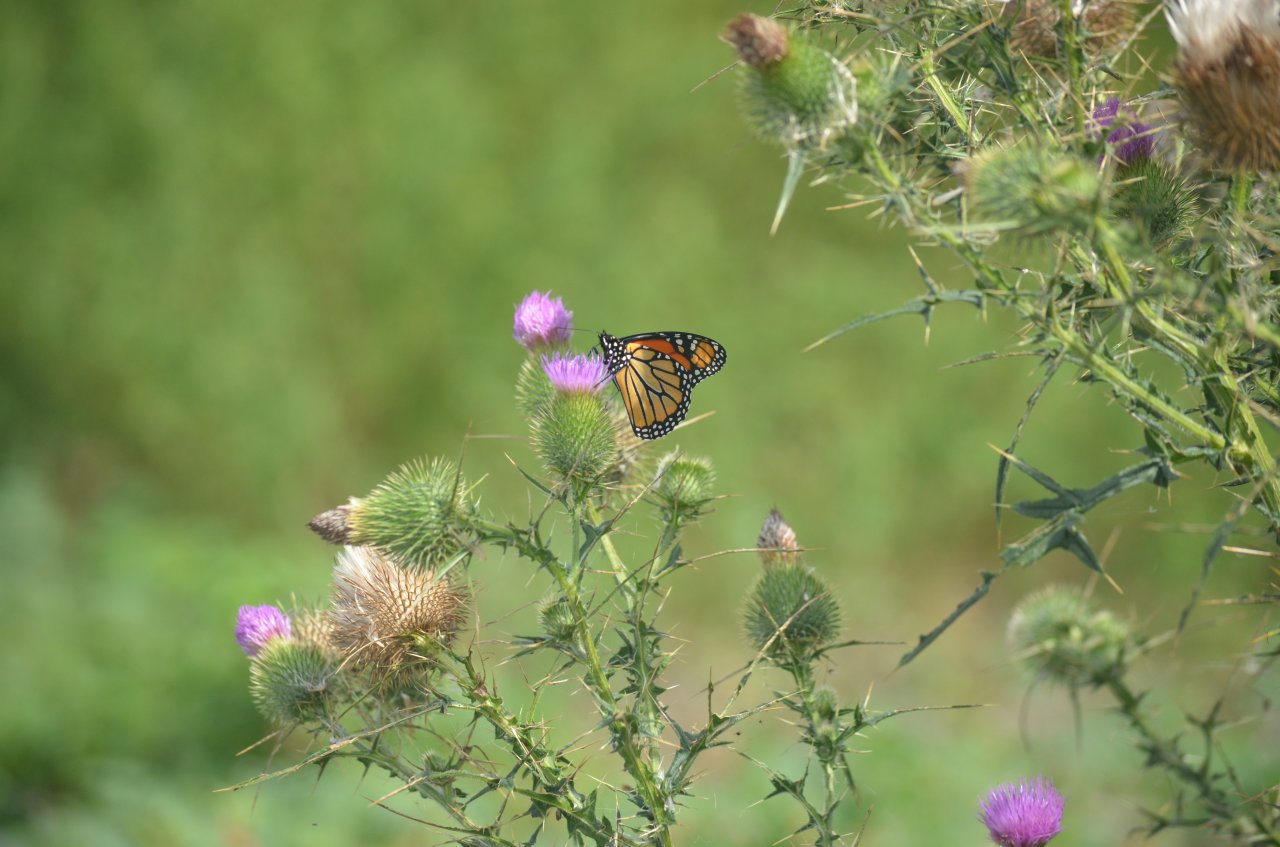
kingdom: Animalia
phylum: Arthropoda
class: Insecta
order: Lepidoptera
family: Nymphalidae
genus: Danaus
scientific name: Danaus plexippus
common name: Monarch
